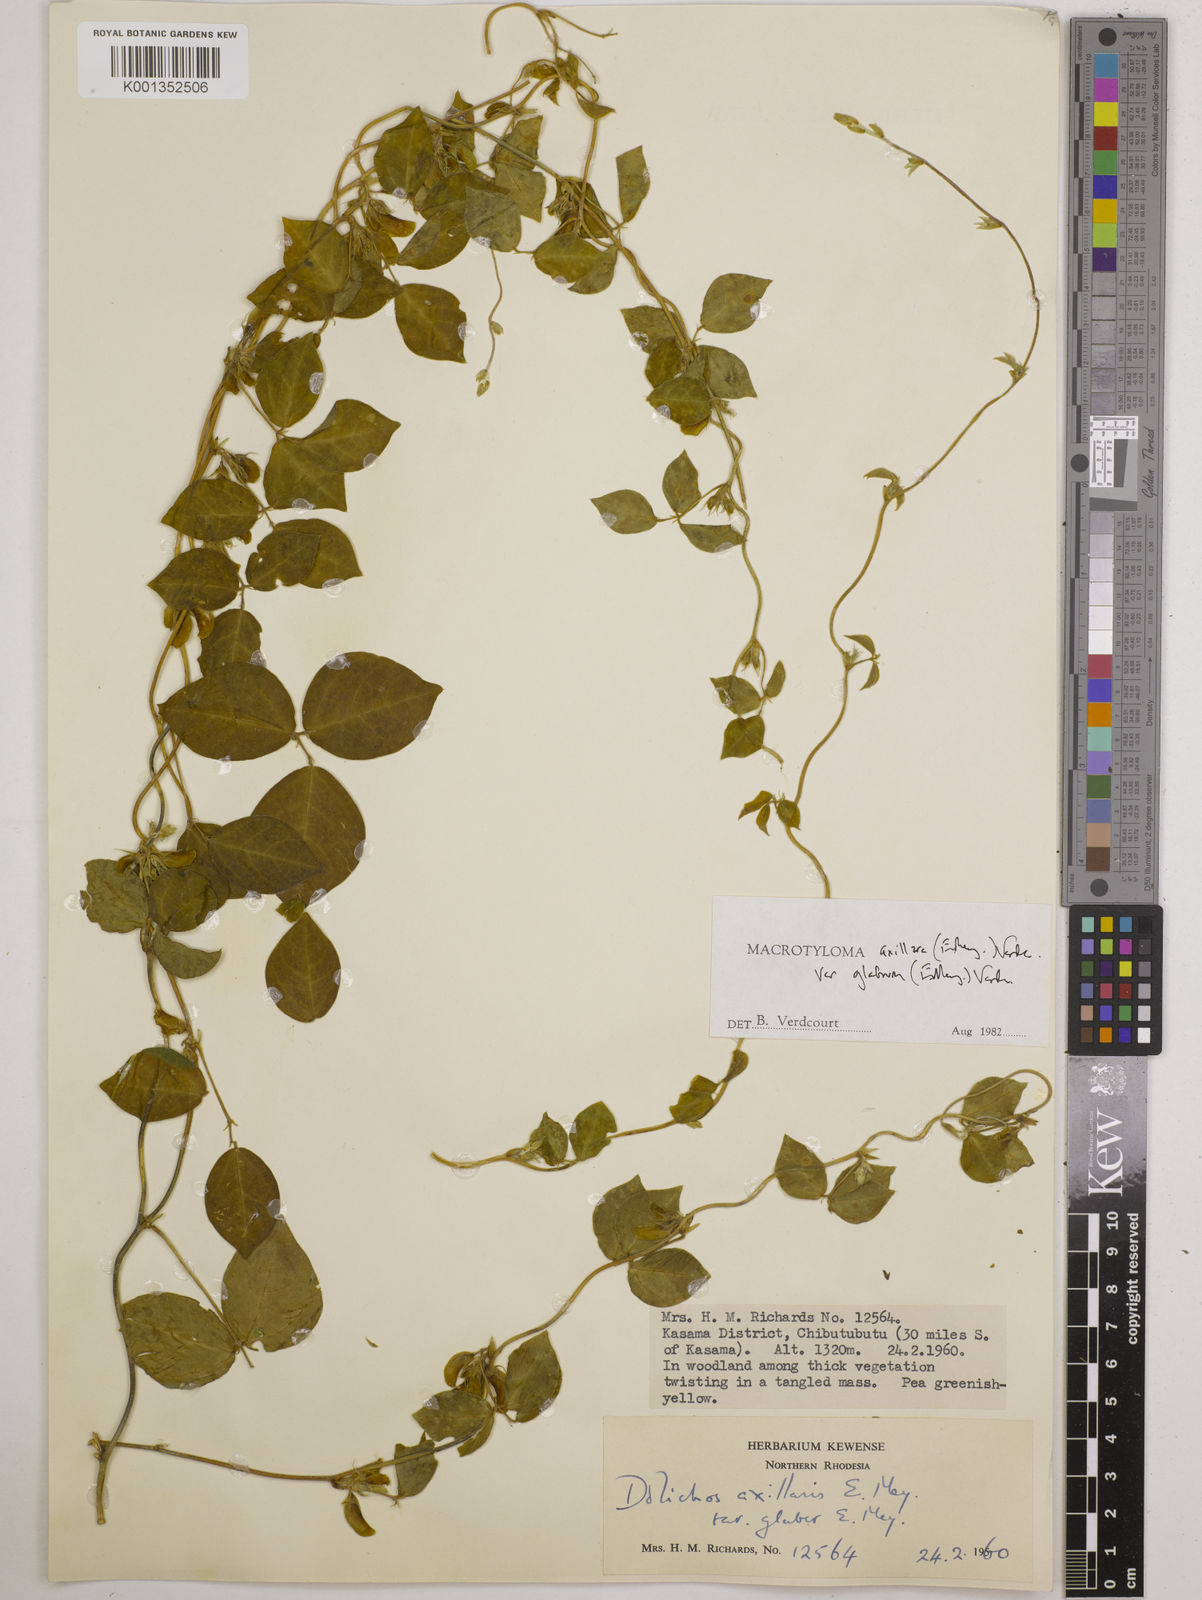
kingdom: Plantae
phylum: Tracheophyta
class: Magnoliopsida
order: Fabales
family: Fabaceae
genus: Macrotyloma
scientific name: Macrotyloma
